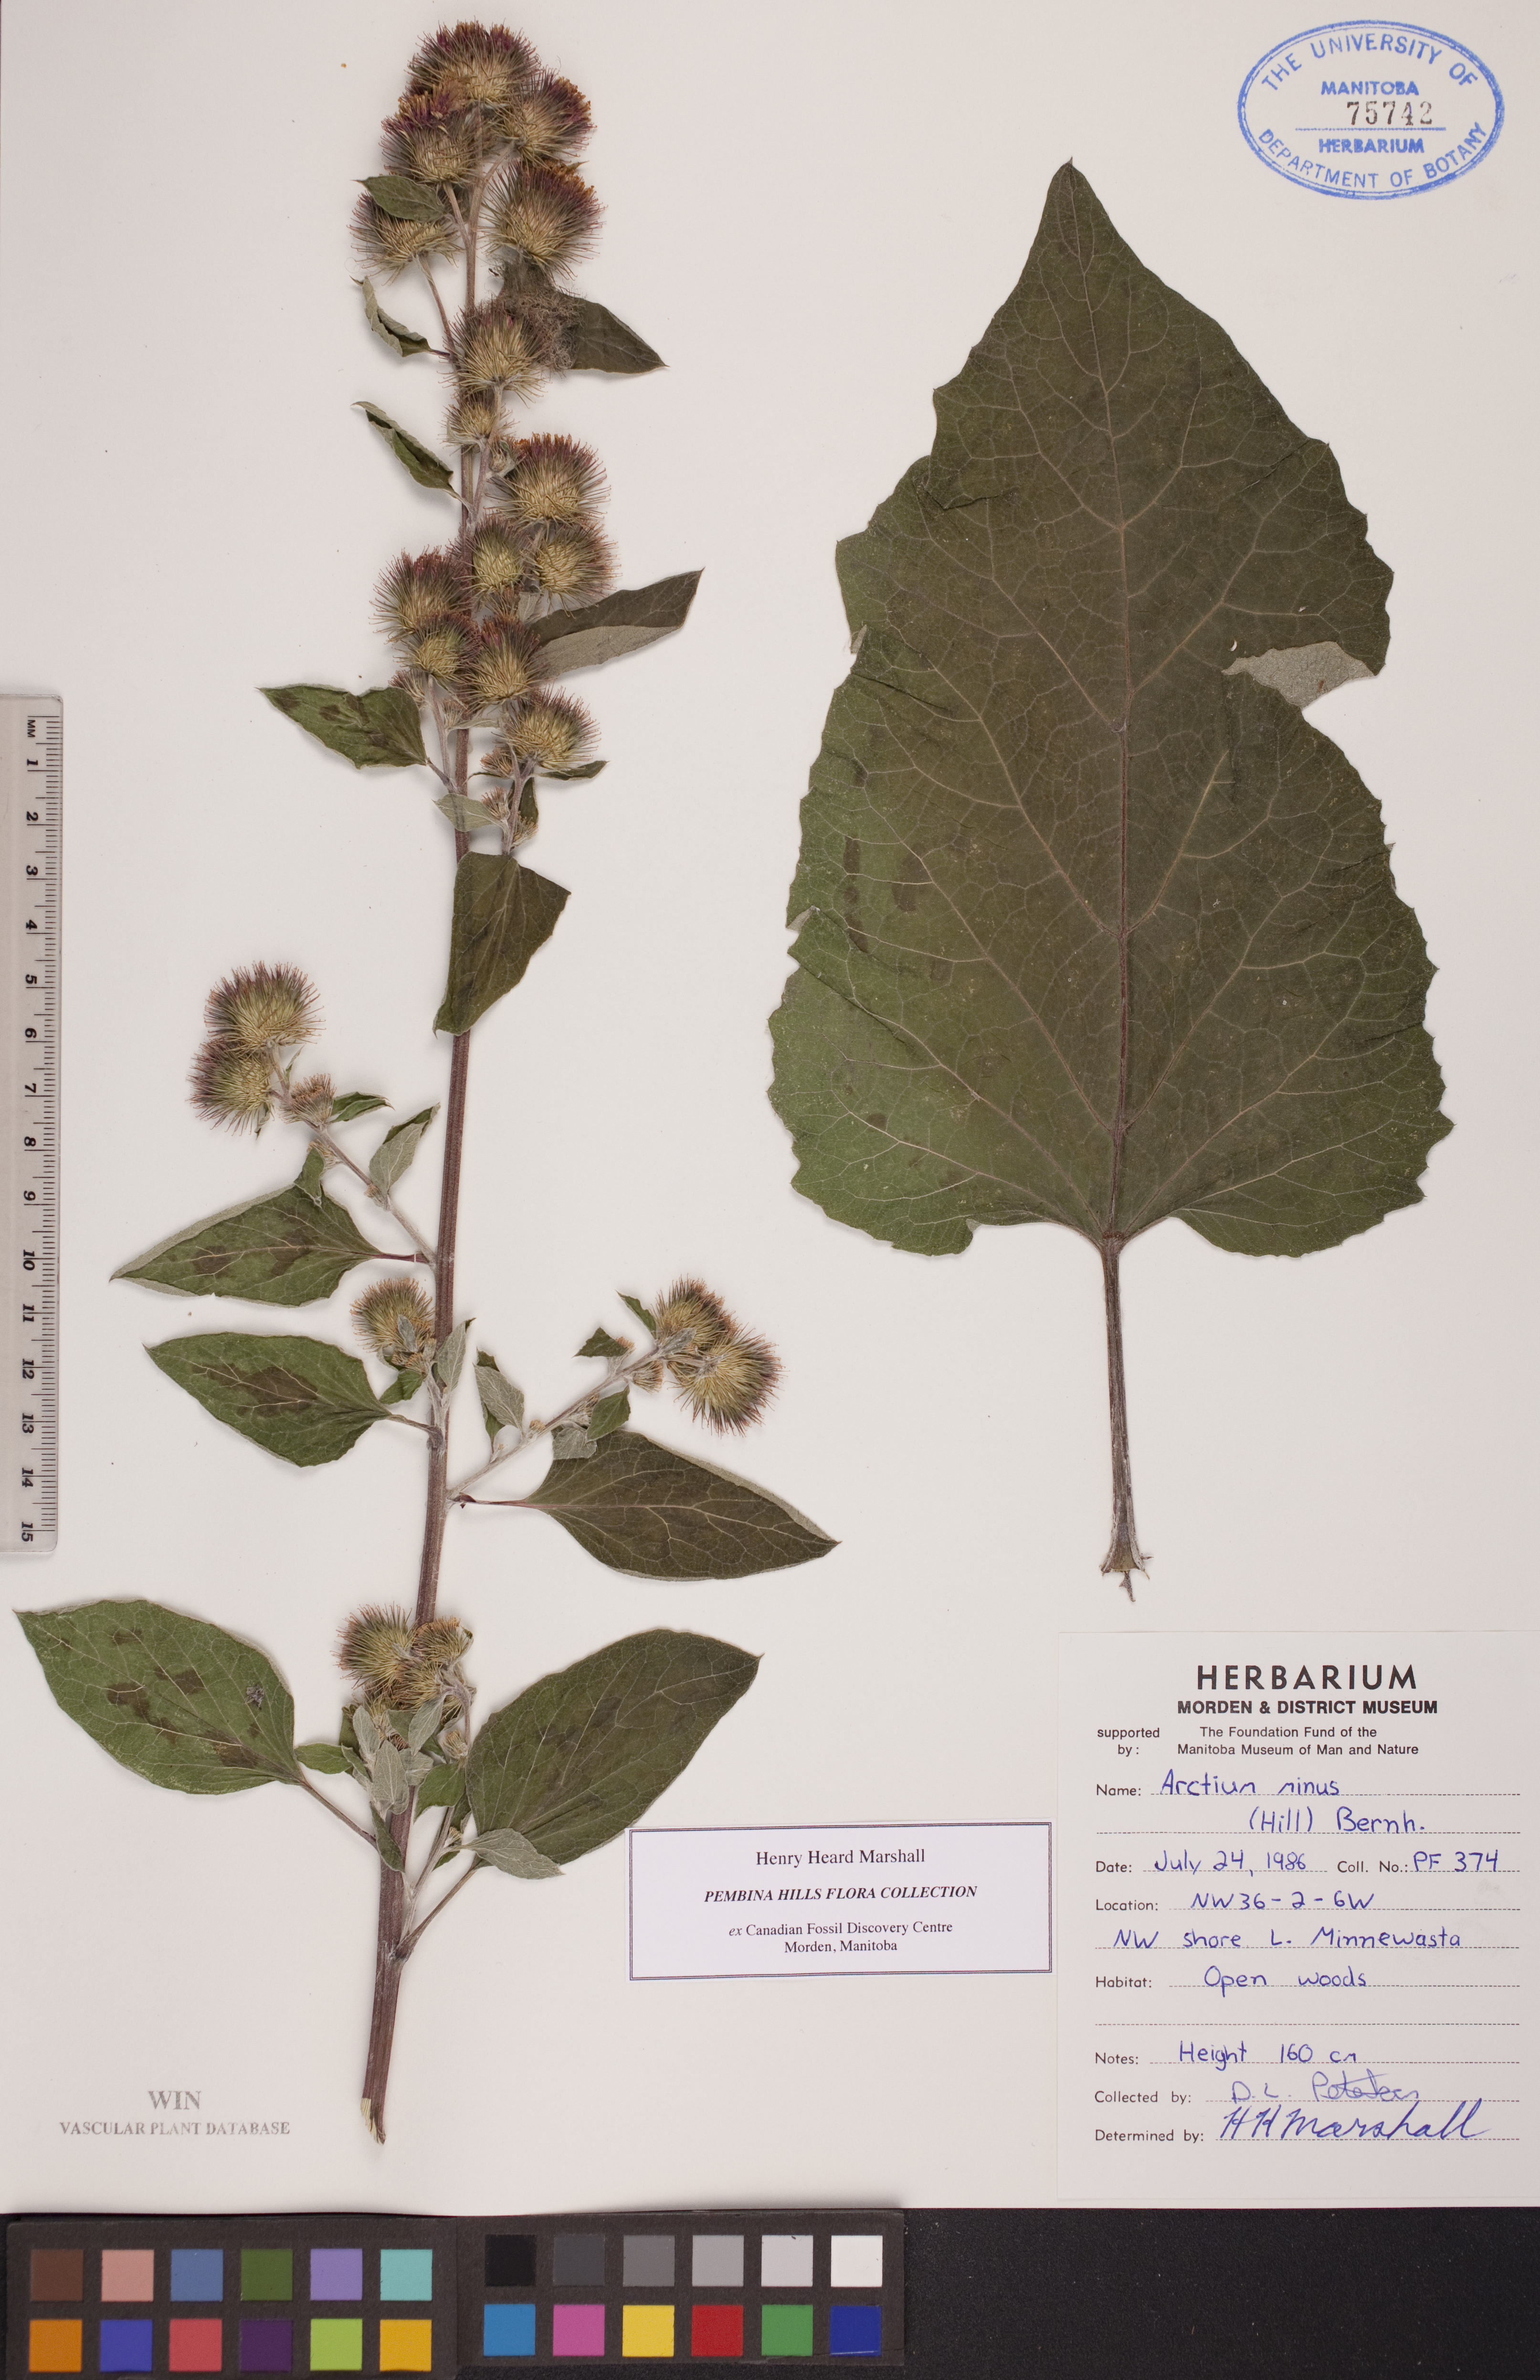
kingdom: Plantae
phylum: Tracheophyta
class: Magnoliopsida
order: Asterales
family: Asteraceae
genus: Arctium
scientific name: Arctium minus
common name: Lesser burdock
